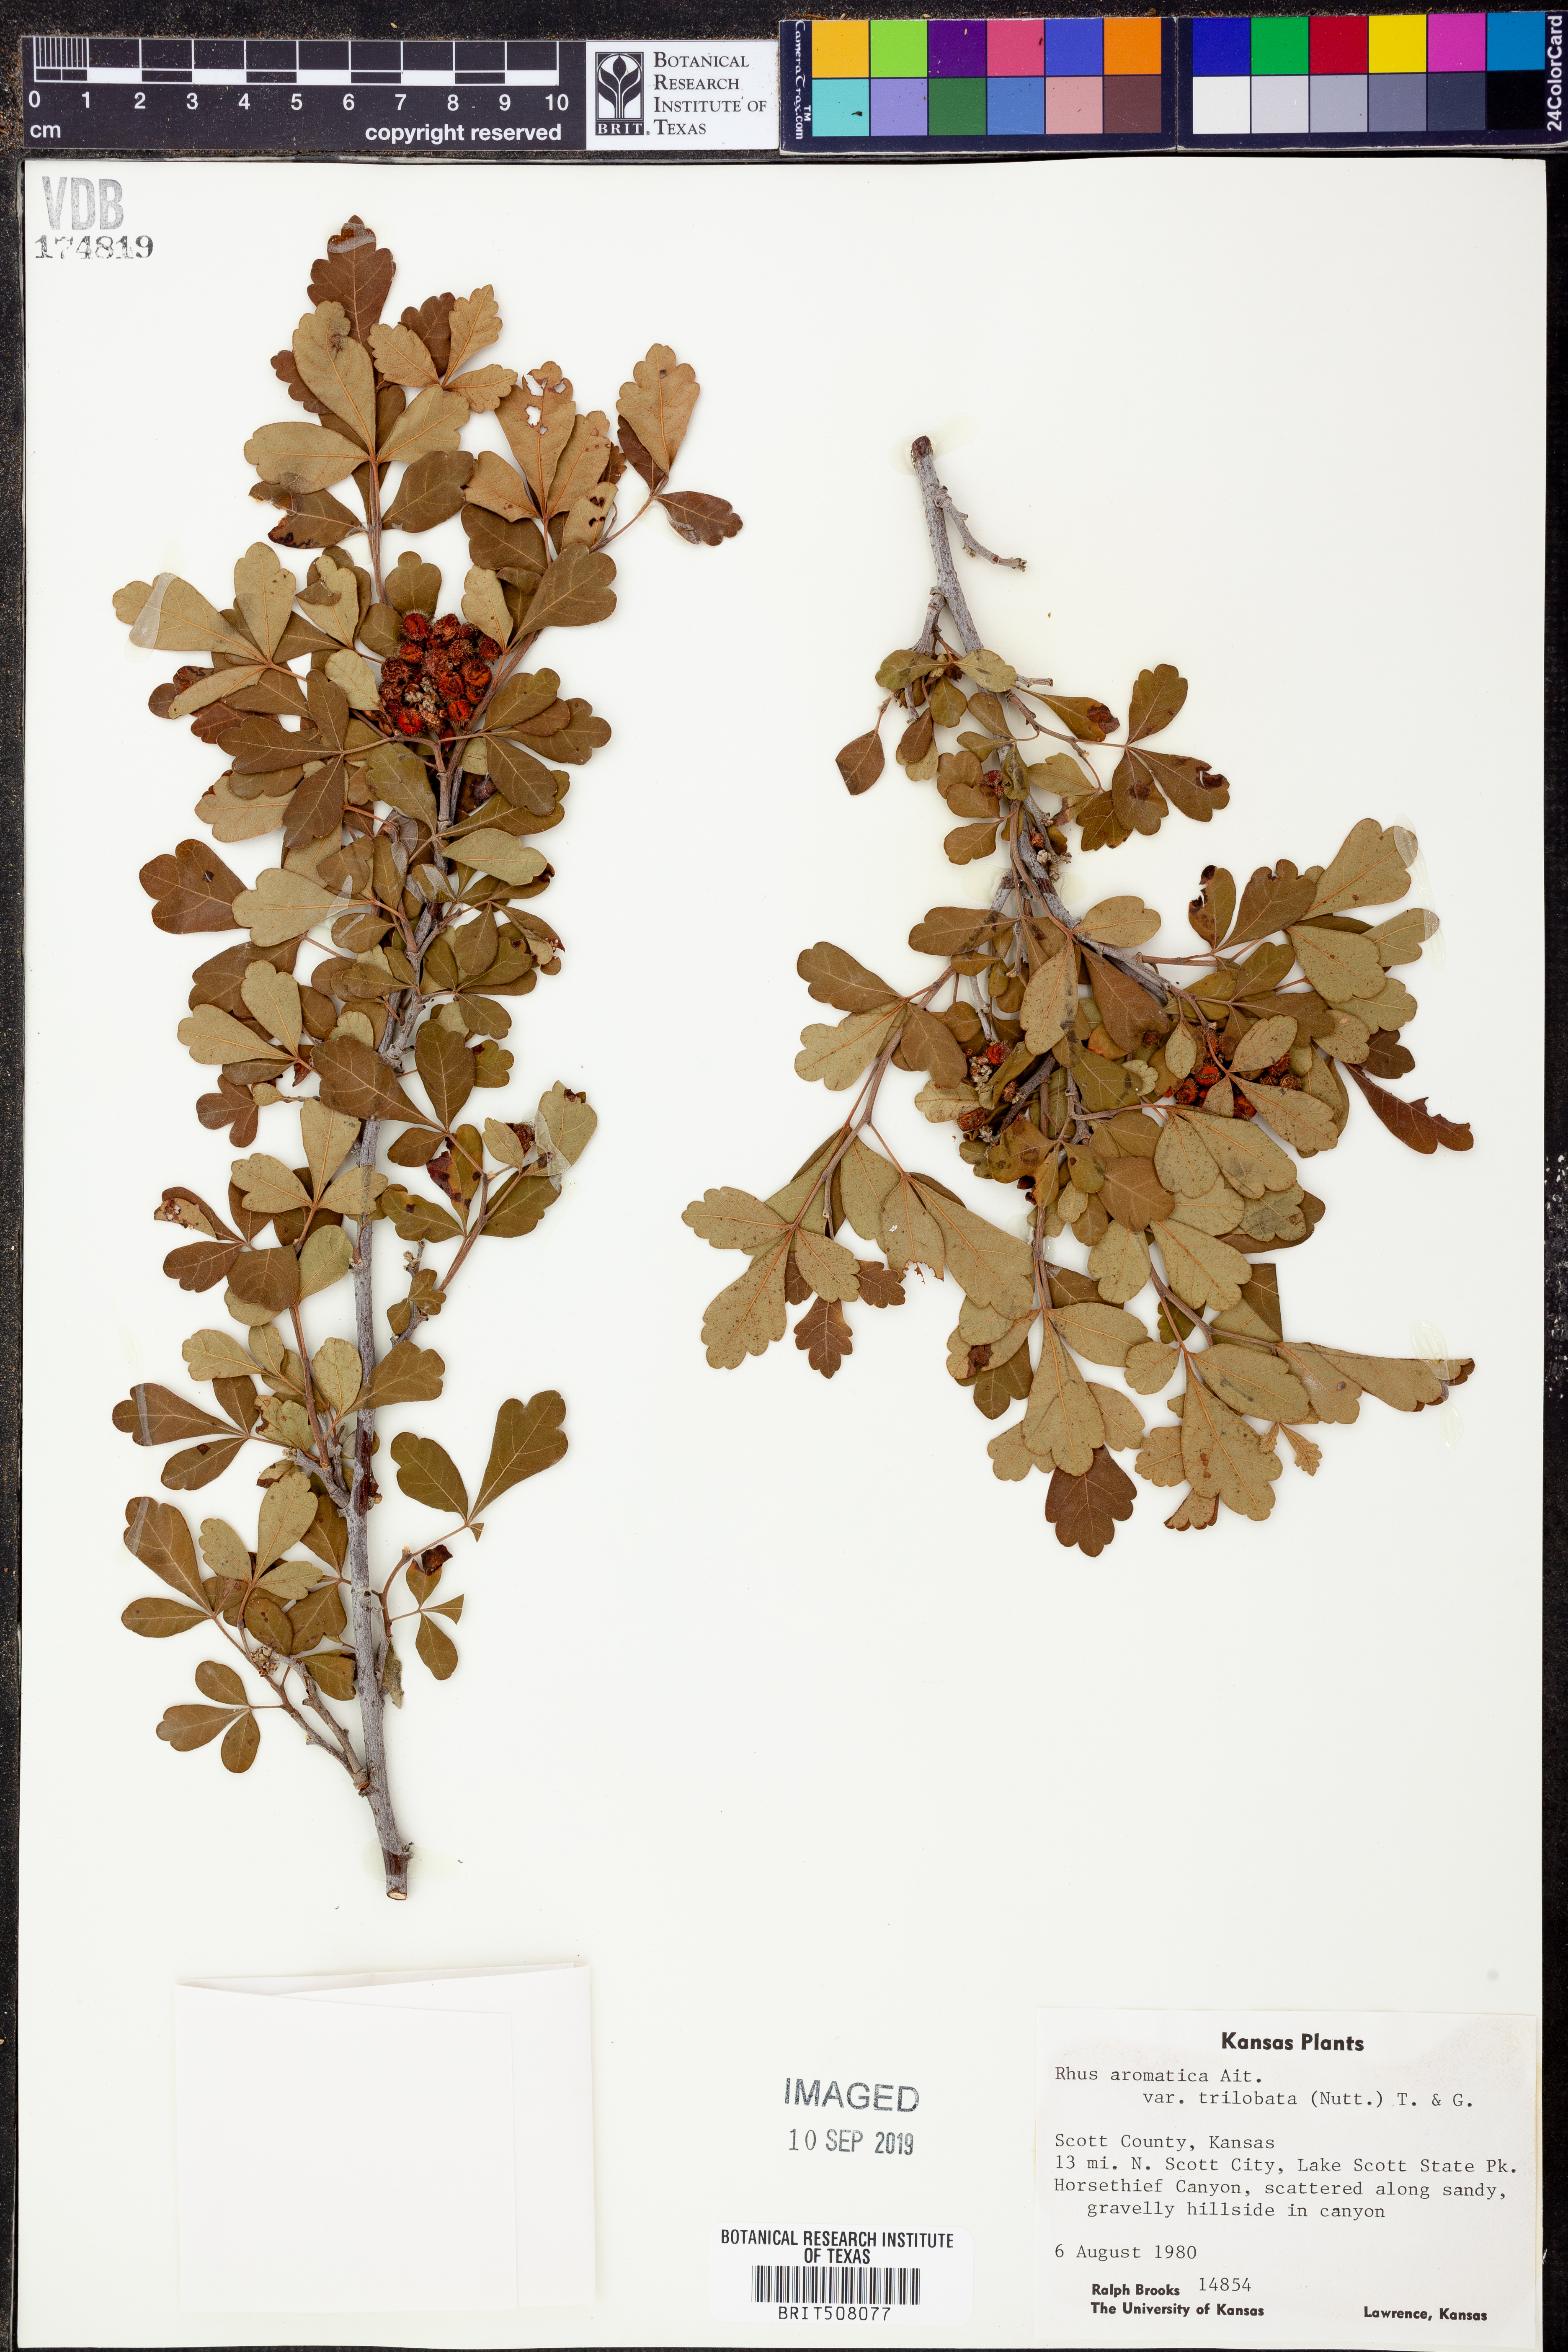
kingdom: Plantae
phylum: Tracheophyta
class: Magnoliopsida
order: Sapindales
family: Anacardiaceae
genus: Rhus
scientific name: Rhus trilobata
